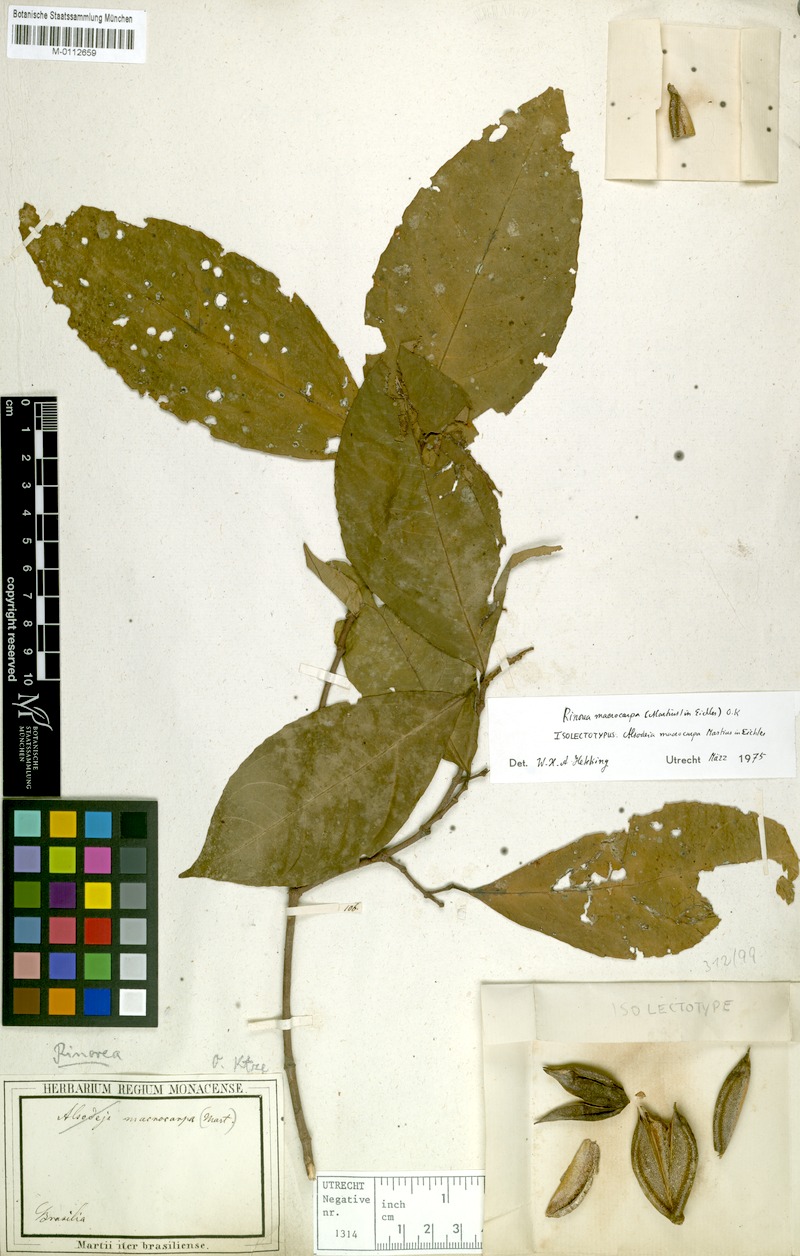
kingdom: Plantae
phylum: Tracheophyta
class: Magnoliopsida
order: Malpighiales
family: Violaceae
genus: Rinorea
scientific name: Rinorea macrocarpa
